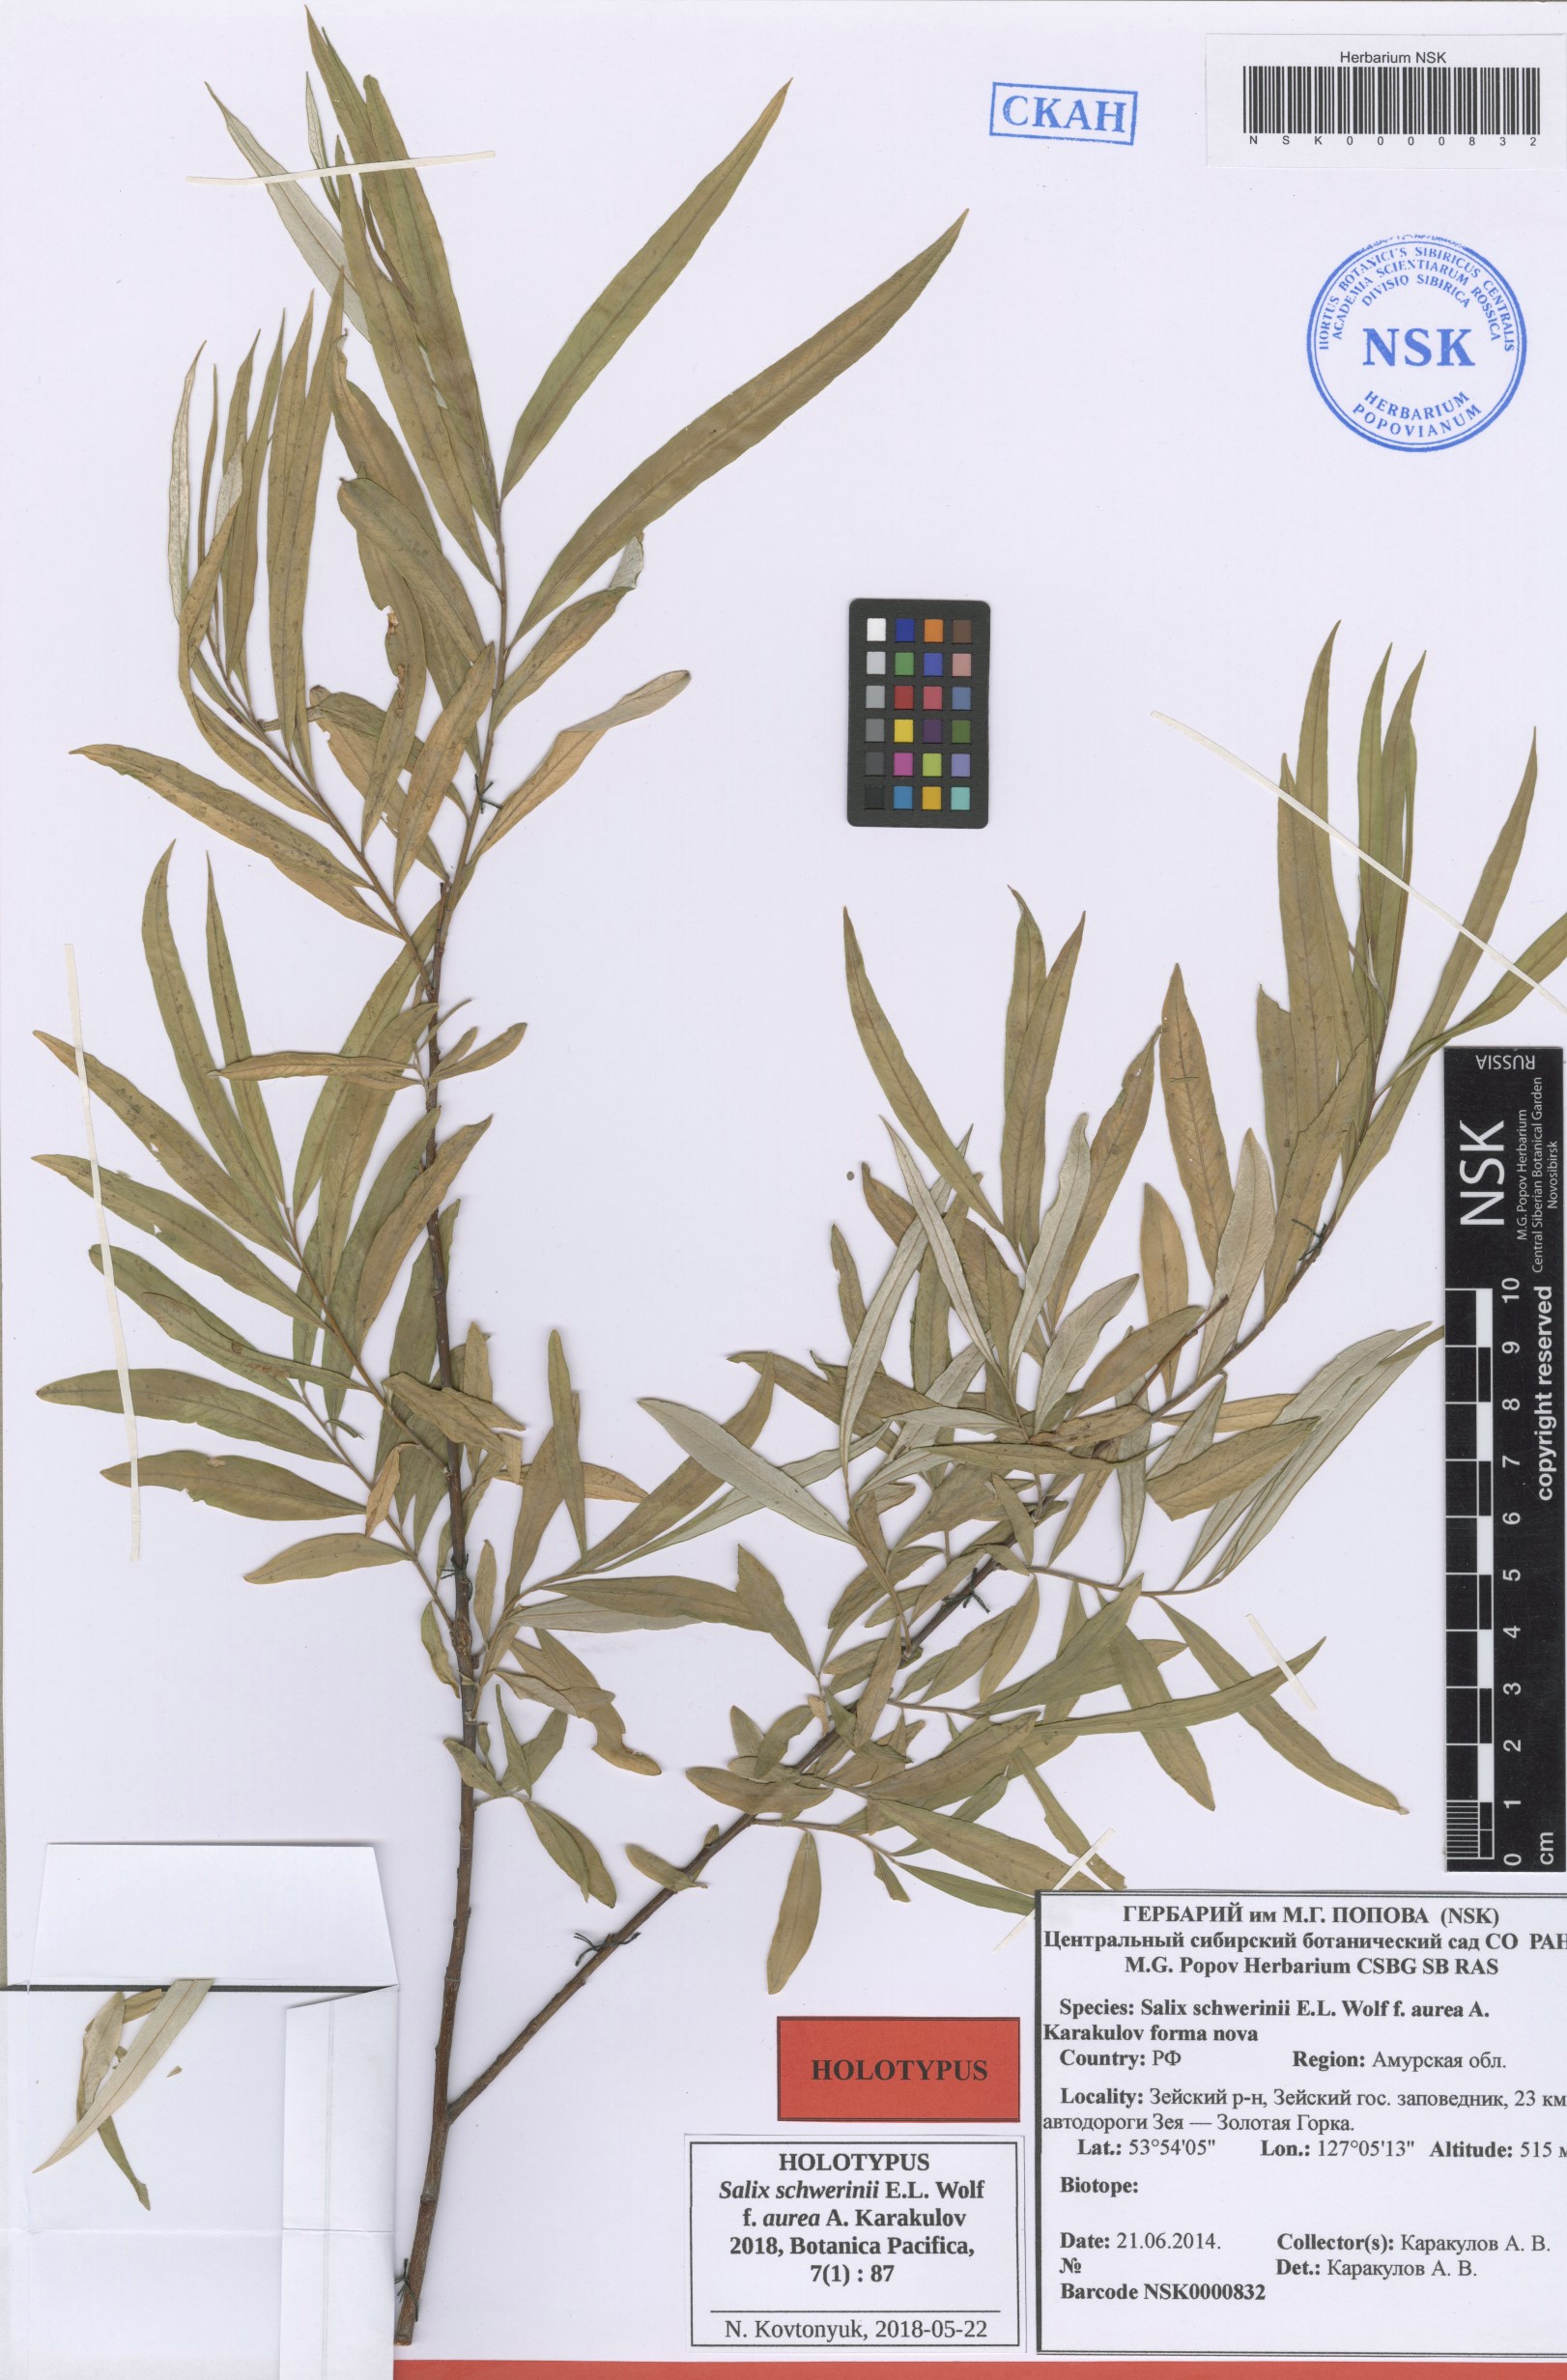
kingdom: Plantae
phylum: Tracheophyta
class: Magnoliopsida
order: Malpighiales
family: Salicaceae
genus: Salix
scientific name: Salix schwerinii
